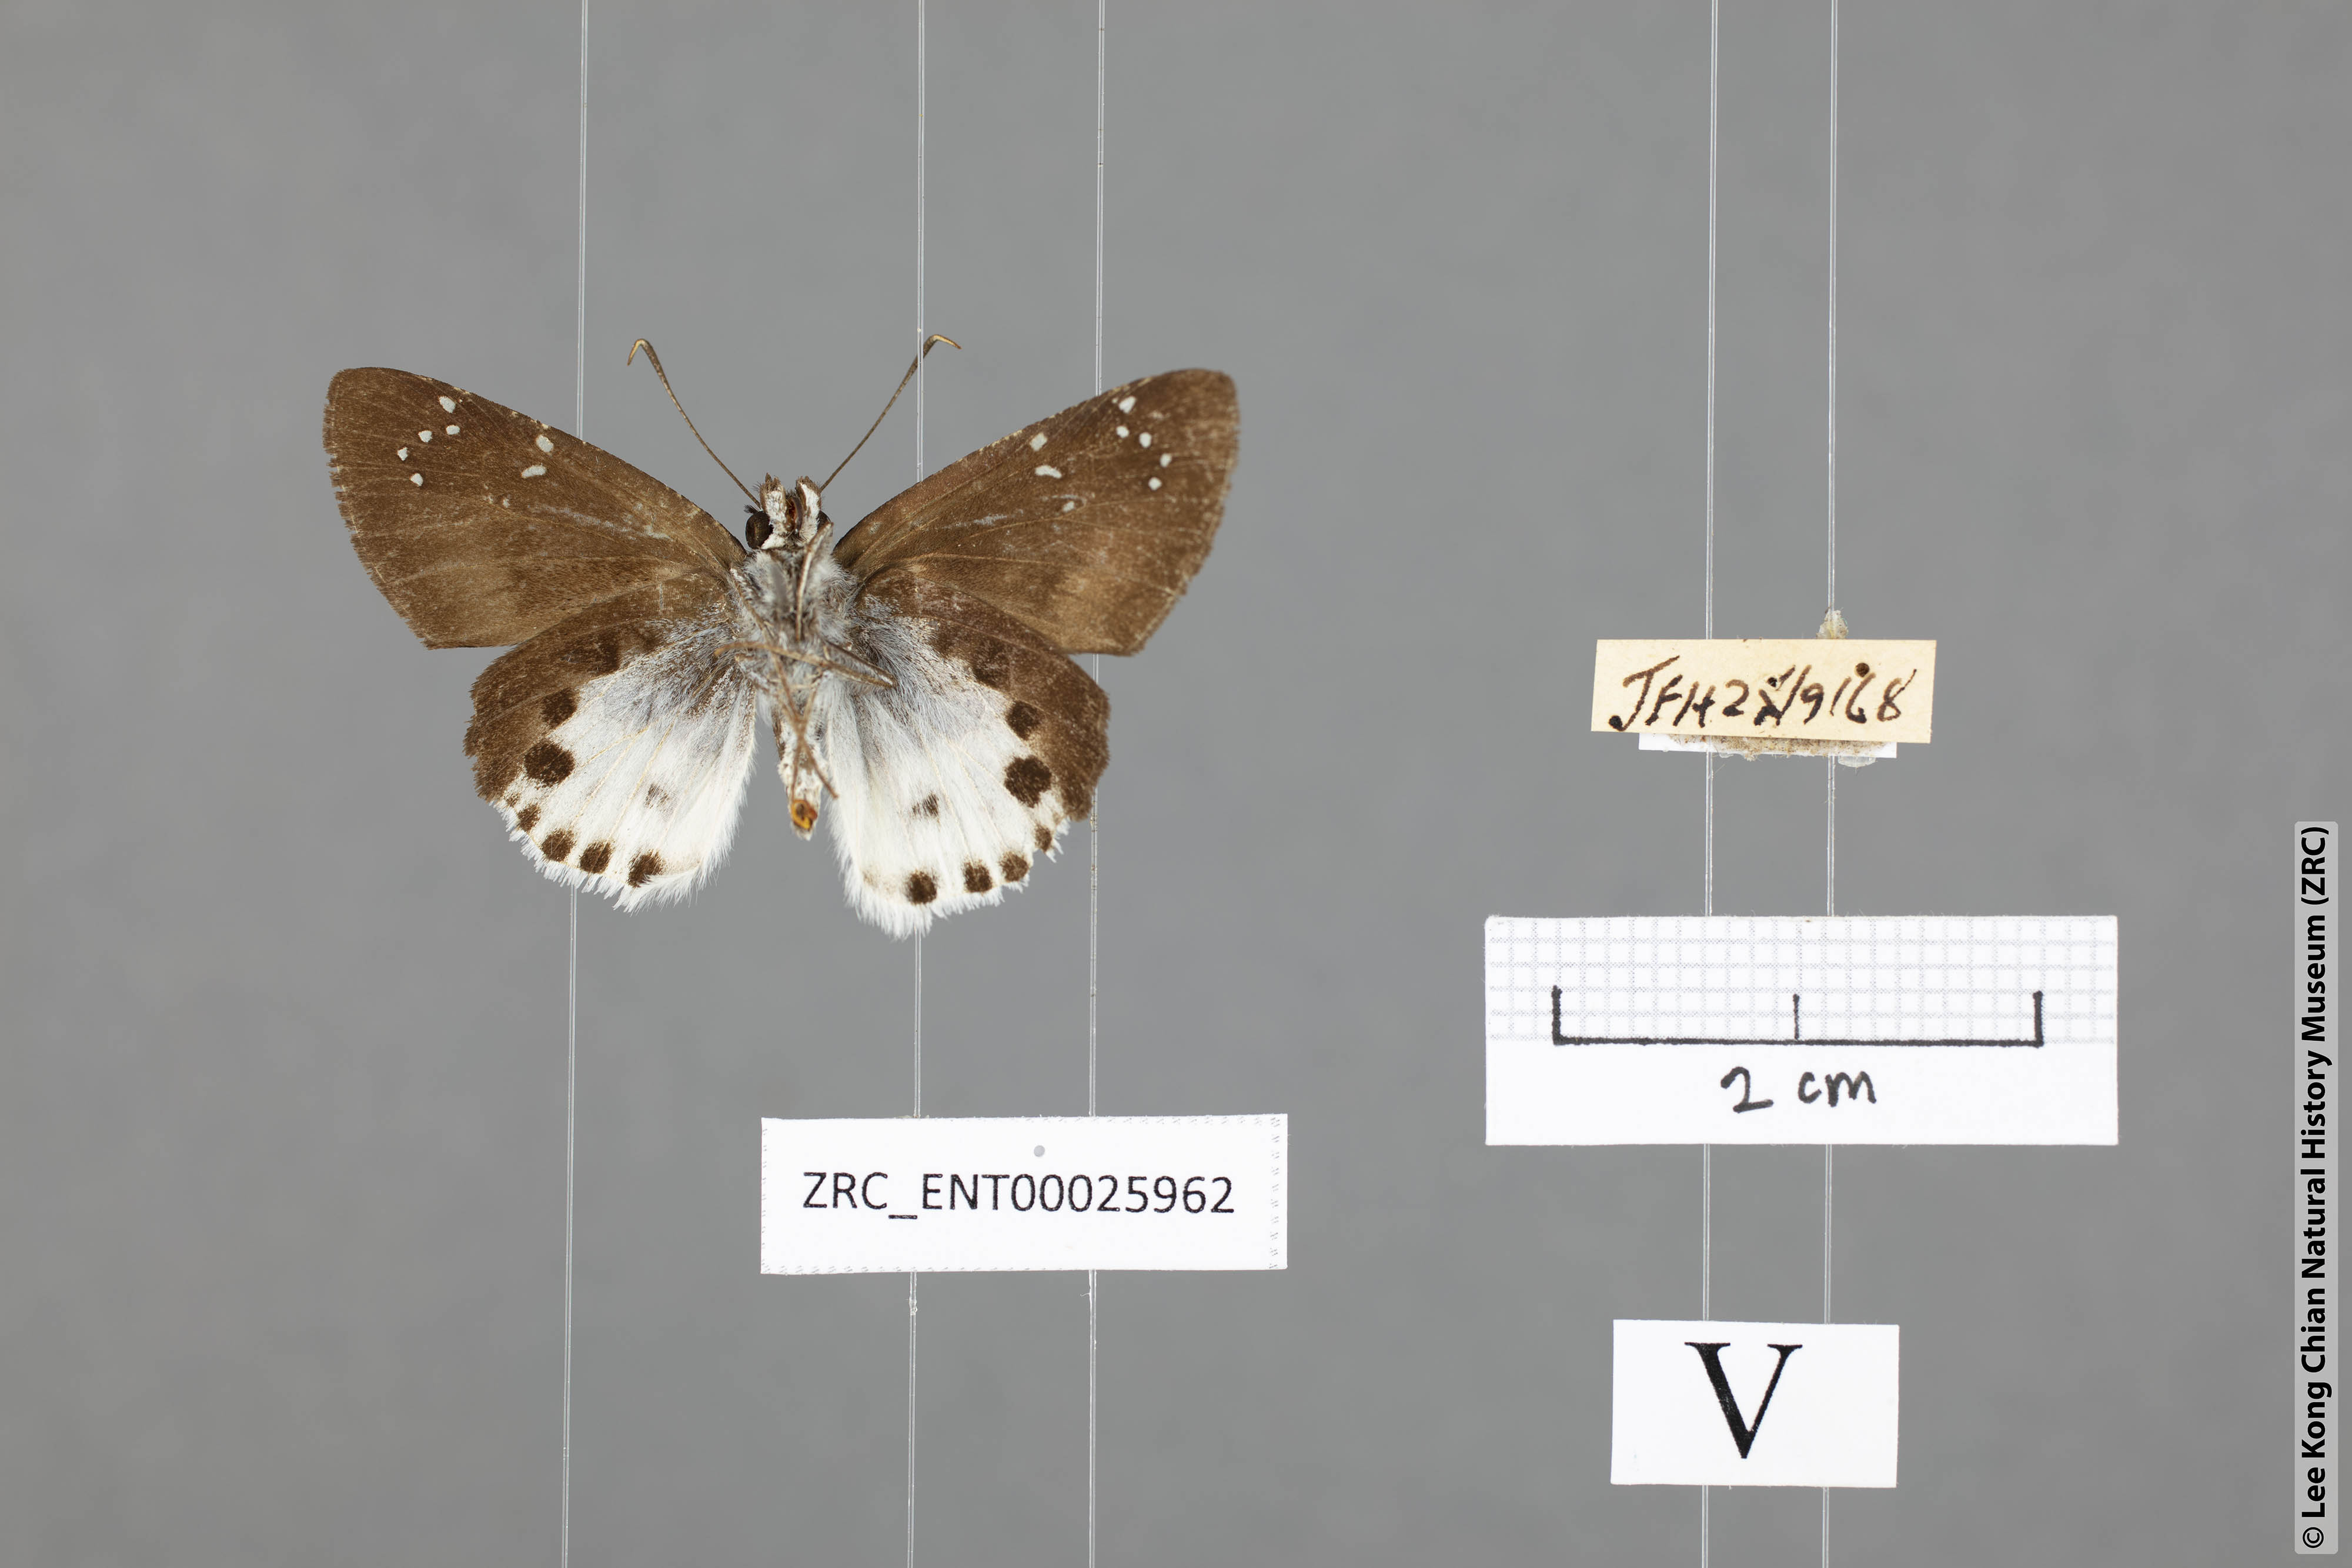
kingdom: Animalia
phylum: Arthropoda
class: Insecta
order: Lepidoptera
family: Hesperiidae
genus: Tagiades
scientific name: Tagiades cohaerens
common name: White-striped snow flat
